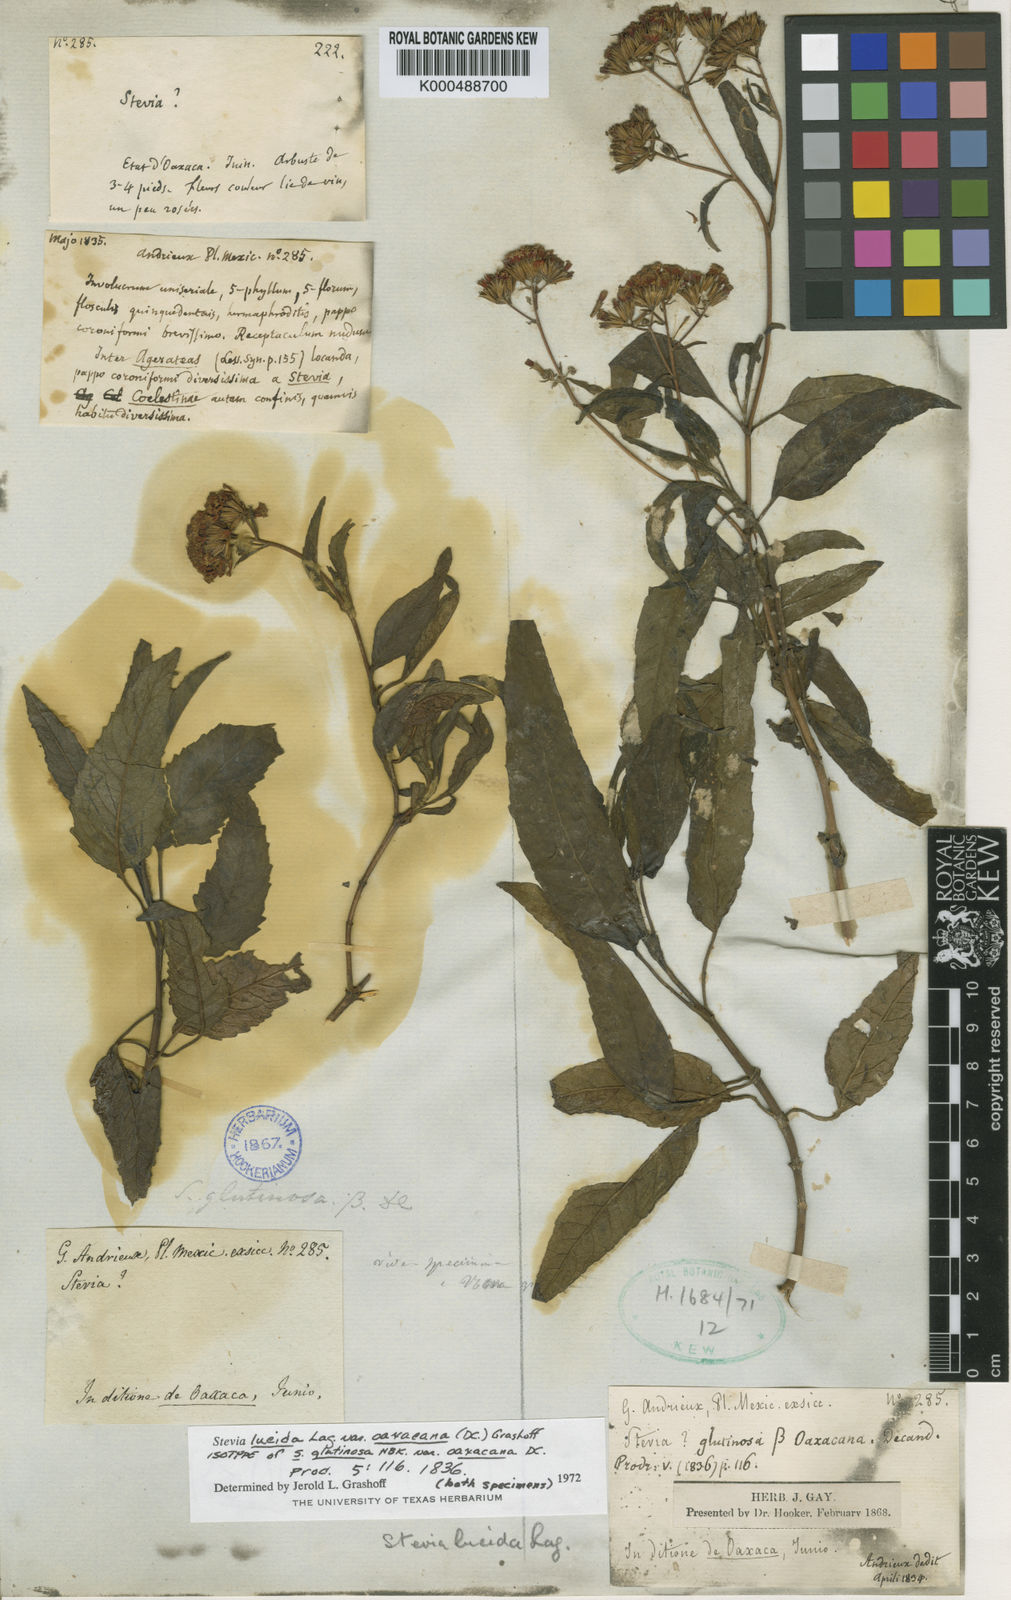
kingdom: Plantae
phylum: Tracheophyta
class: Magnoliopsida
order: Asterales
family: Asteraceae
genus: Stevia
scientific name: Stevia lucida
